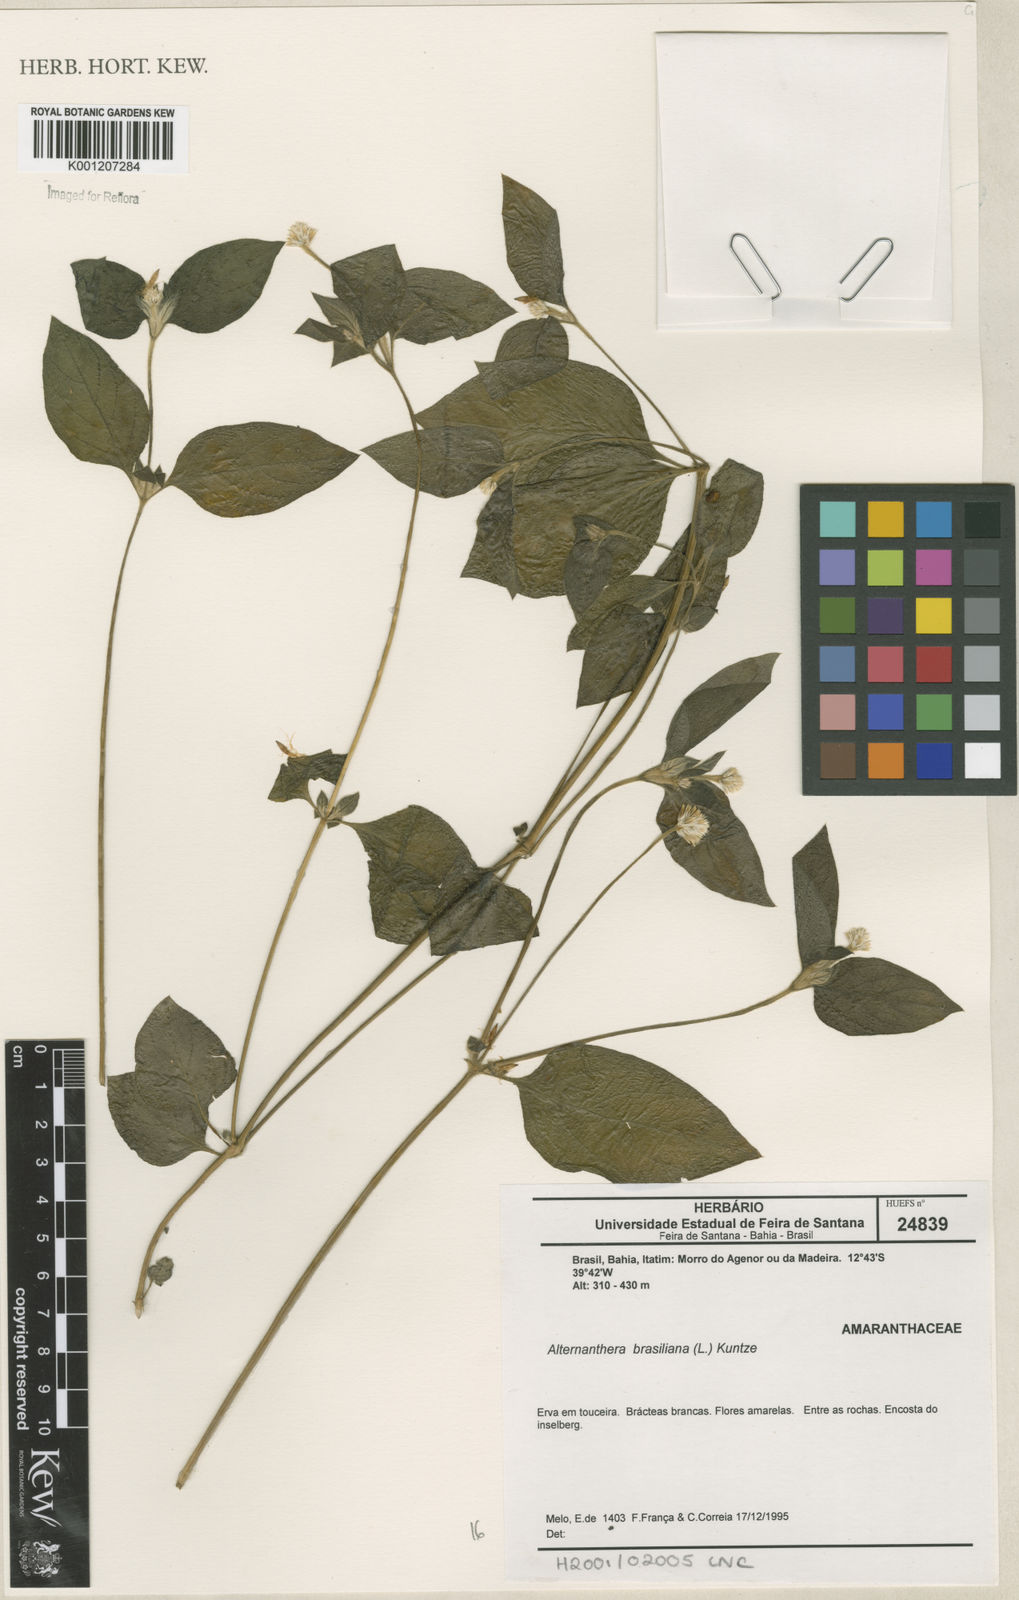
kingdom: Plantae
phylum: Tracheophyta
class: Magnoliopsida
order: Caryophyllales
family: Amaranthaceae
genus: Alternanthera
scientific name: Alternanthera brasiliana
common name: Brazilian joyweed
